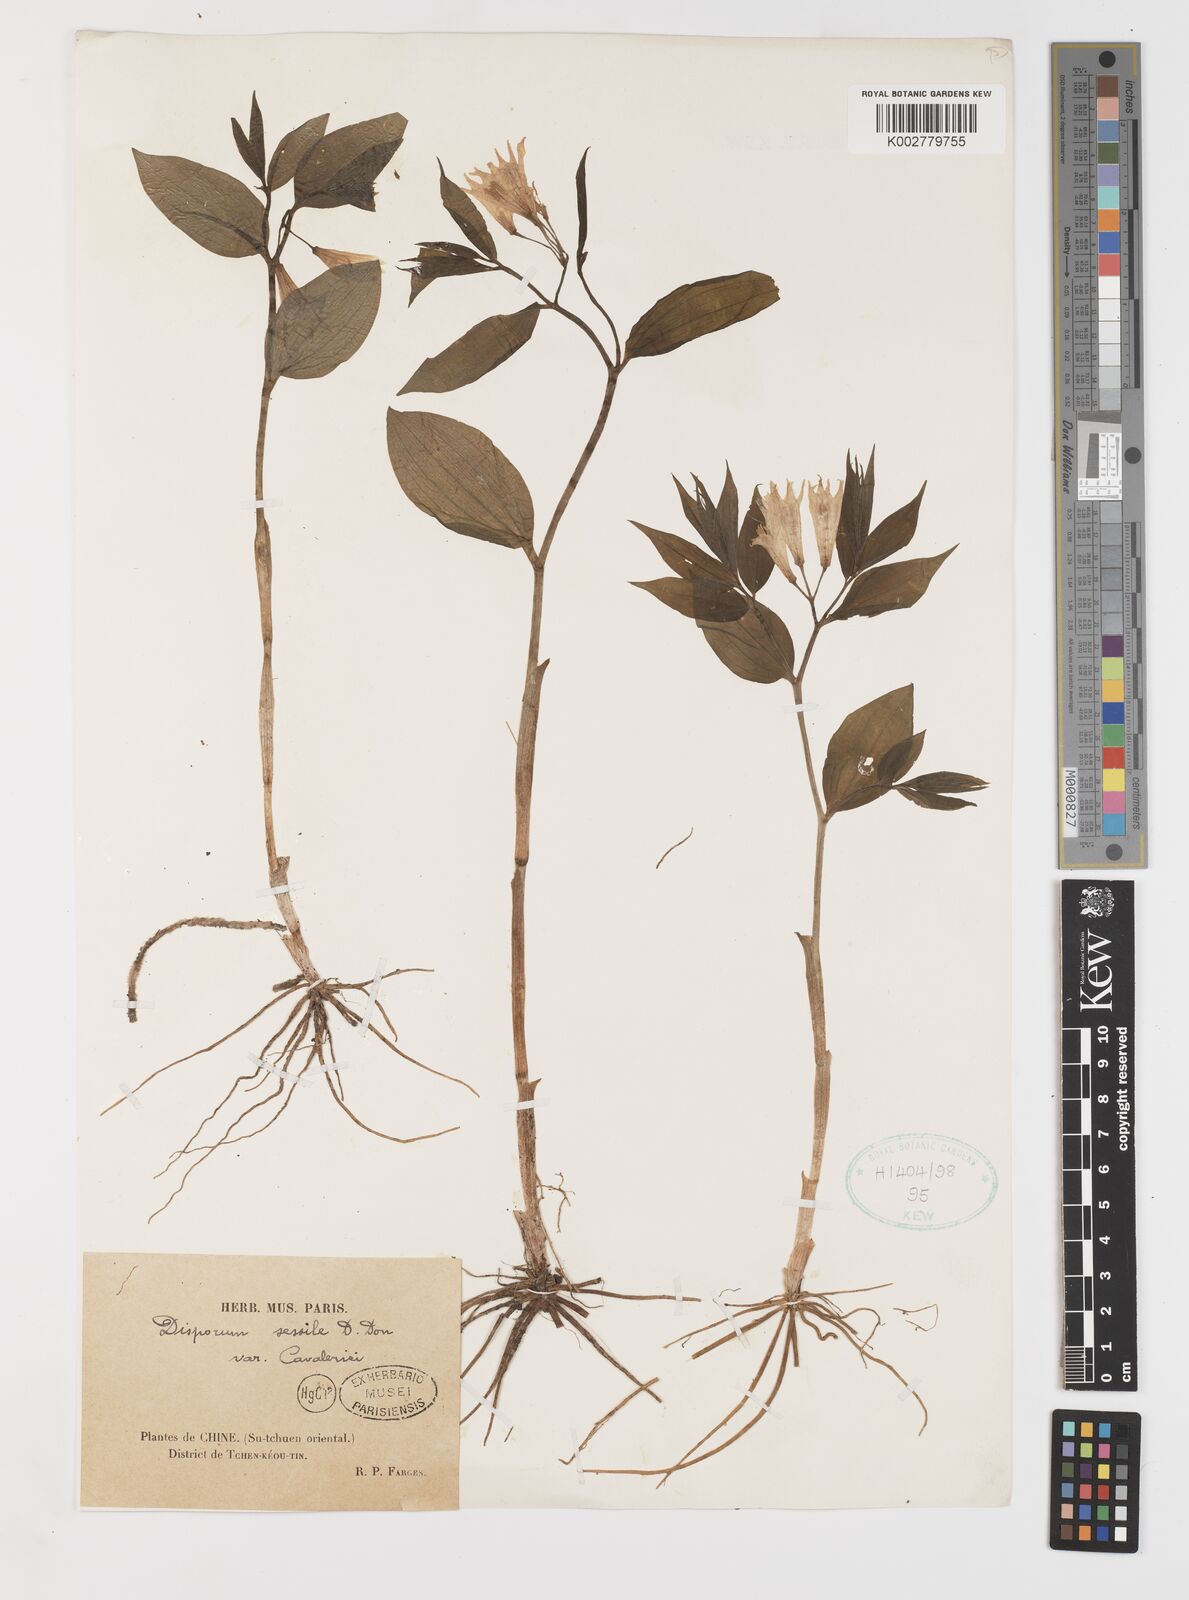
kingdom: Plantae
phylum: Tracheophyta
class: Liliopsida
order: Liliales
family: Colchicaceae
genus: Disporum
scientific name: Disporum sessile
